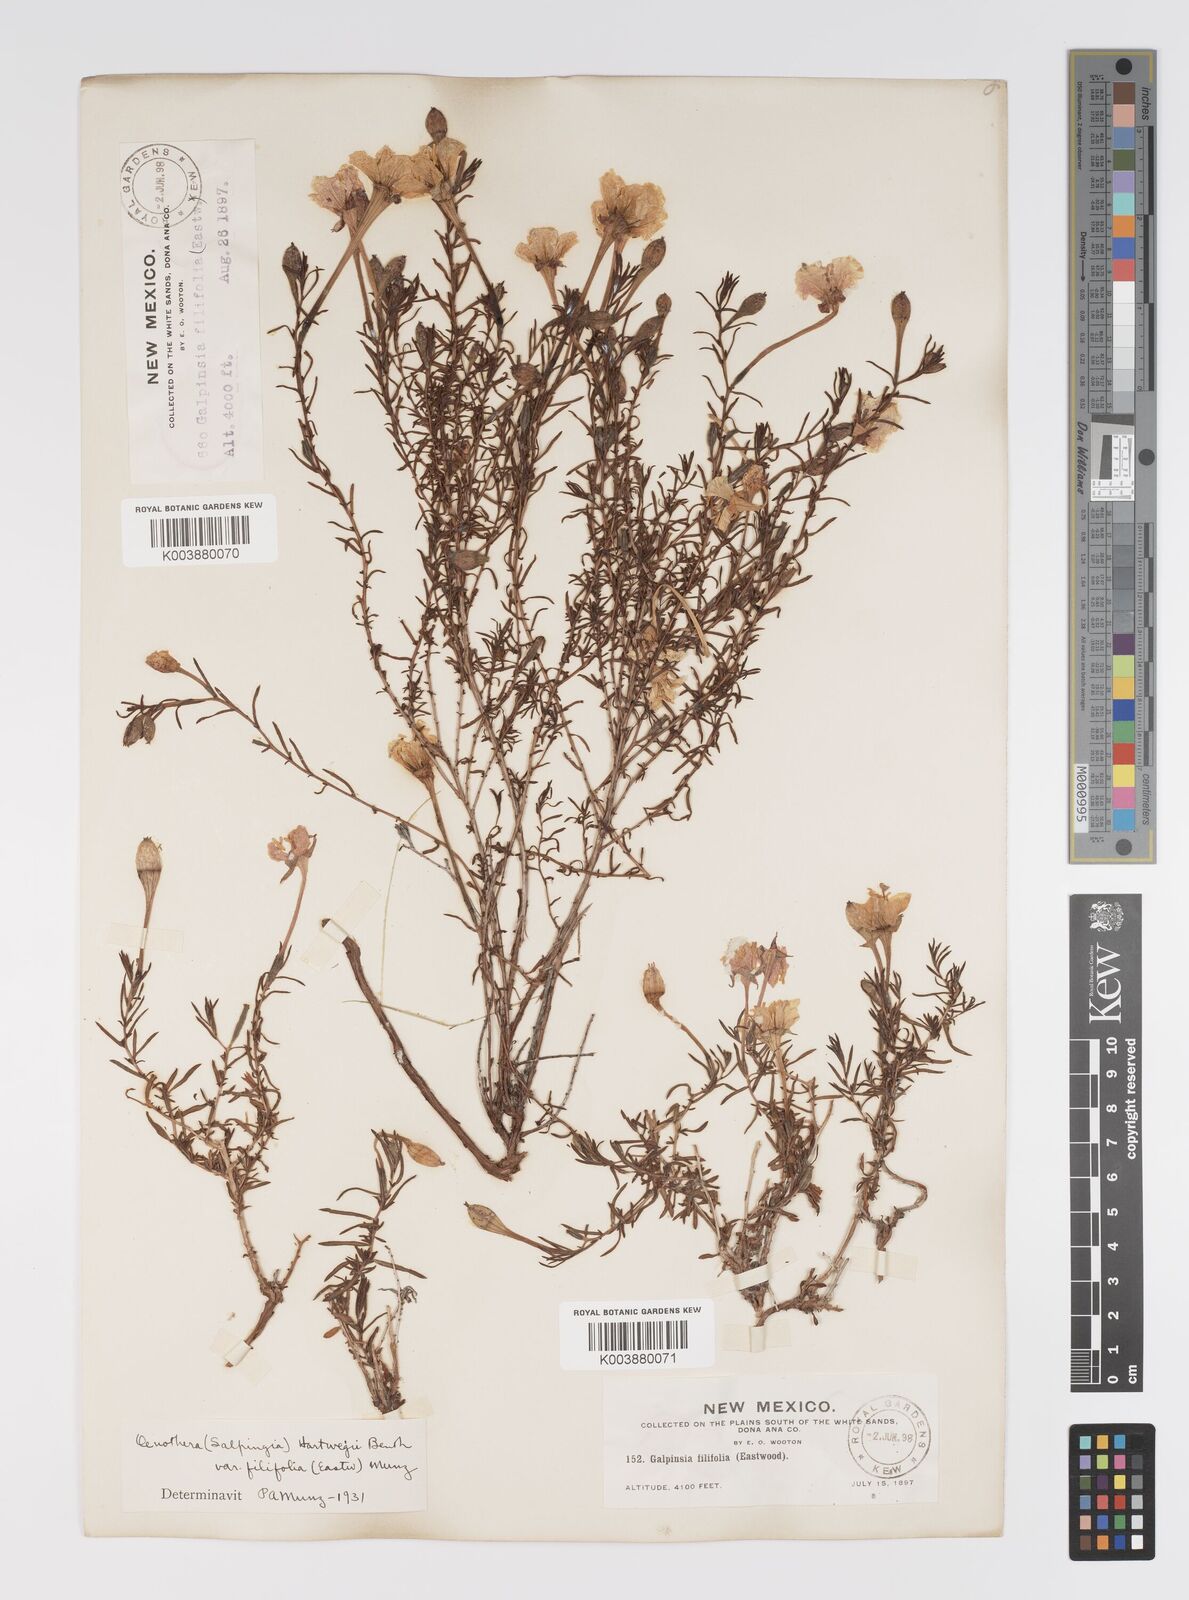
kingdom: Plantae
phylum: Tracheophyta
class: Magnoliopsida
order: Myrtales
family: Onagraceae
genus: Oenothera
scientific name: Oenothera hartwegii
